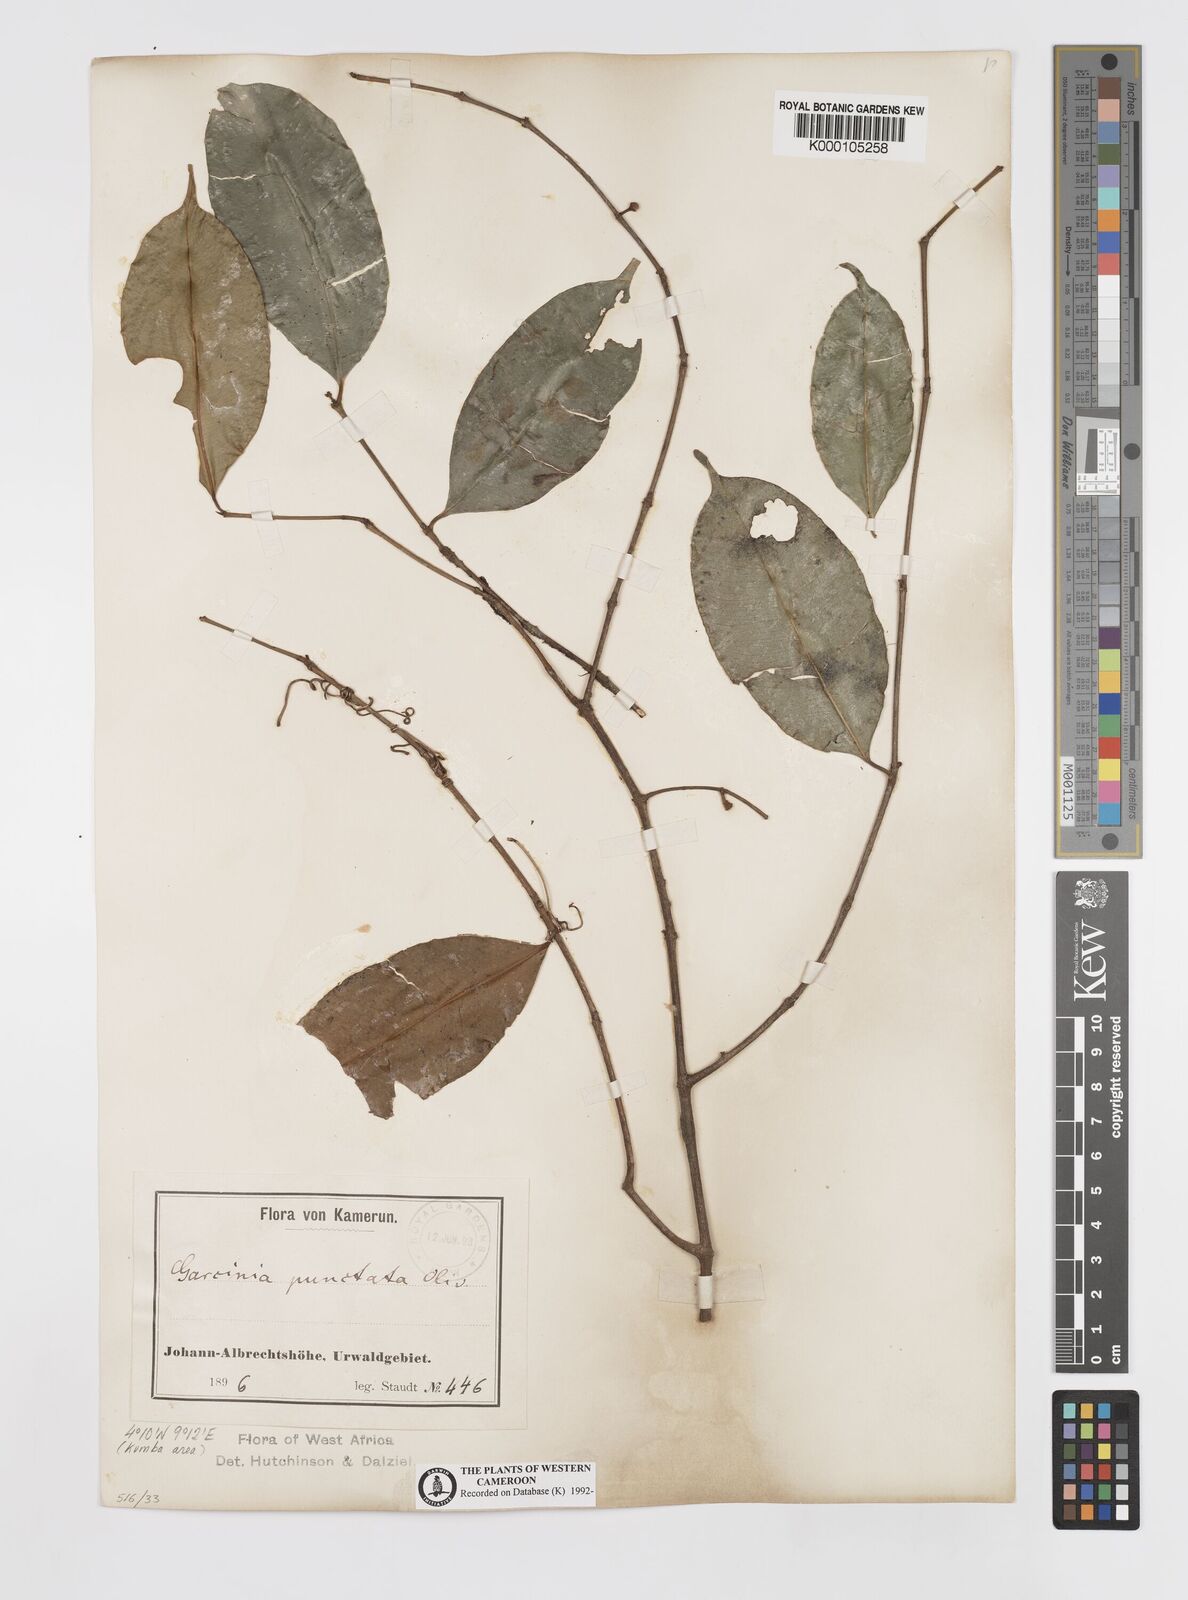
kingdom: Plantae
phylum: Tracheophyta
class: Magnoliopsida
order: Malpighiales
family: Clusiaceae
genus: Garcinia
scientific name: Garcinia punctata
